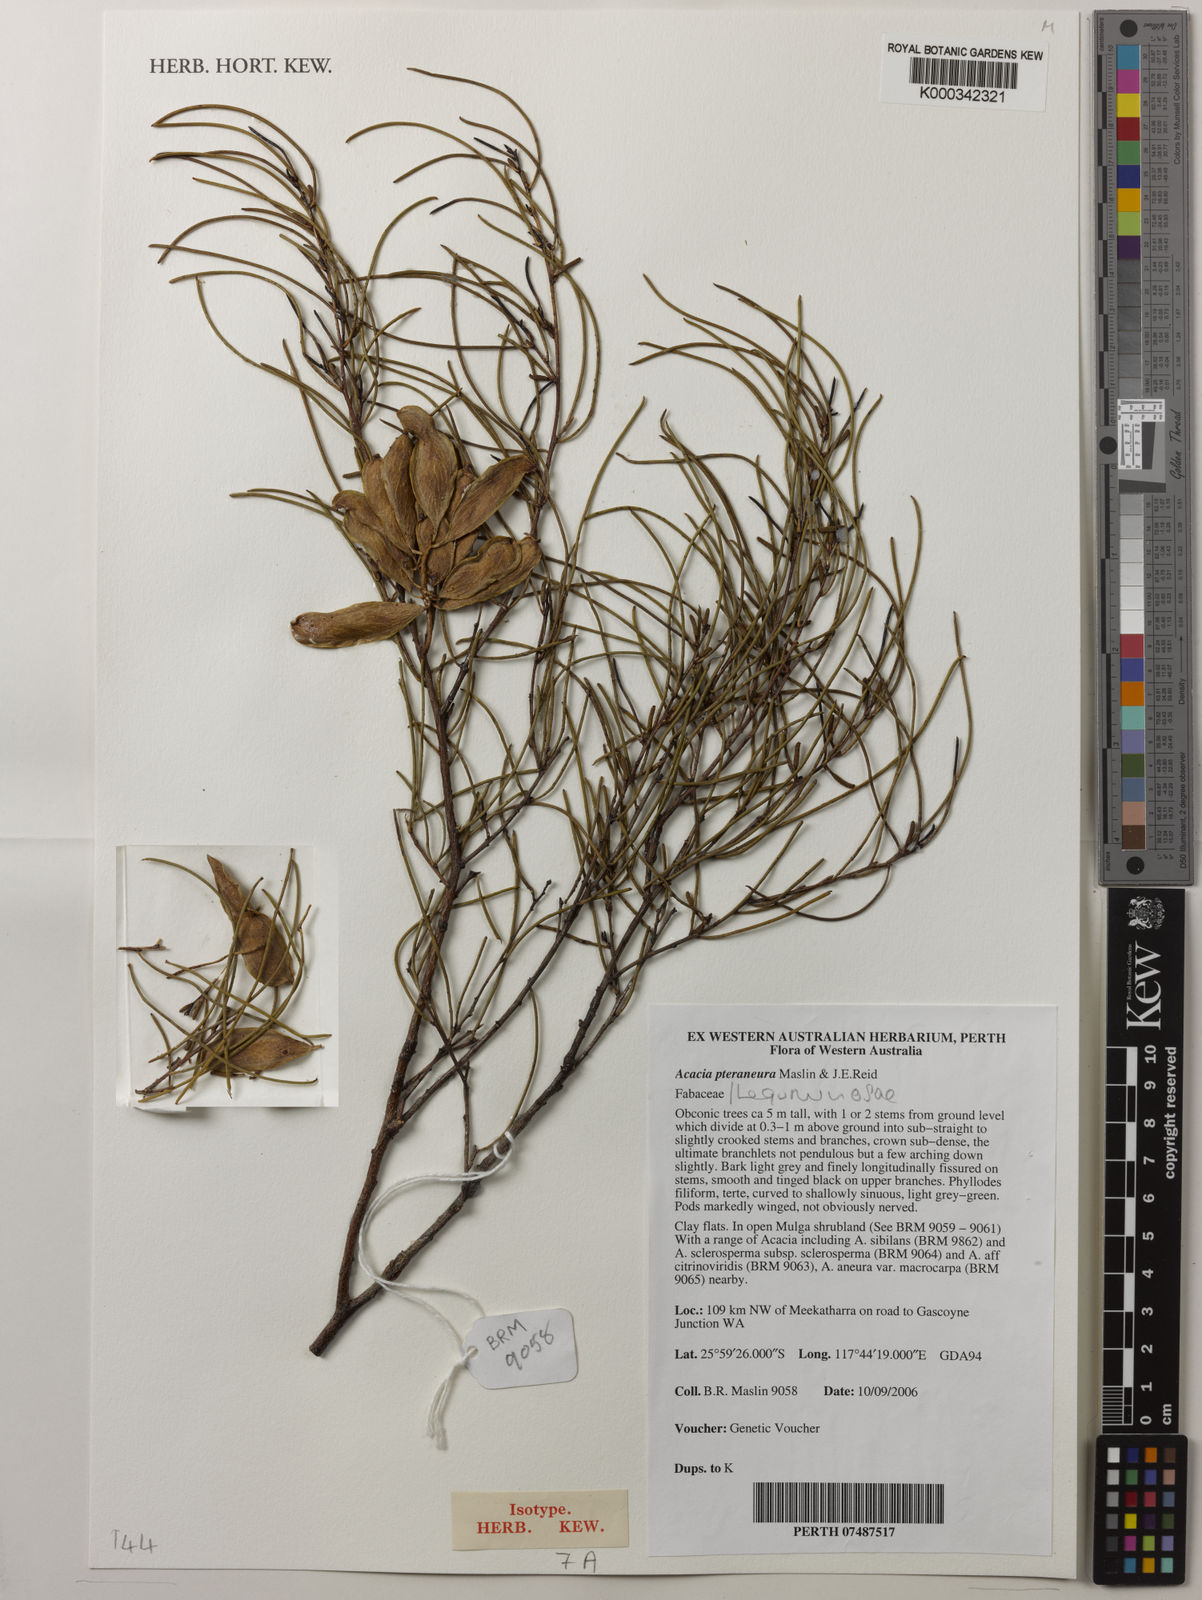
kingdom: Plantae
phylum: Tracheophyta
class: Magnoliopsida
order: Fabales
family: Fabaceae
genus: Acacia
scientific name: Acacia pteraneura
